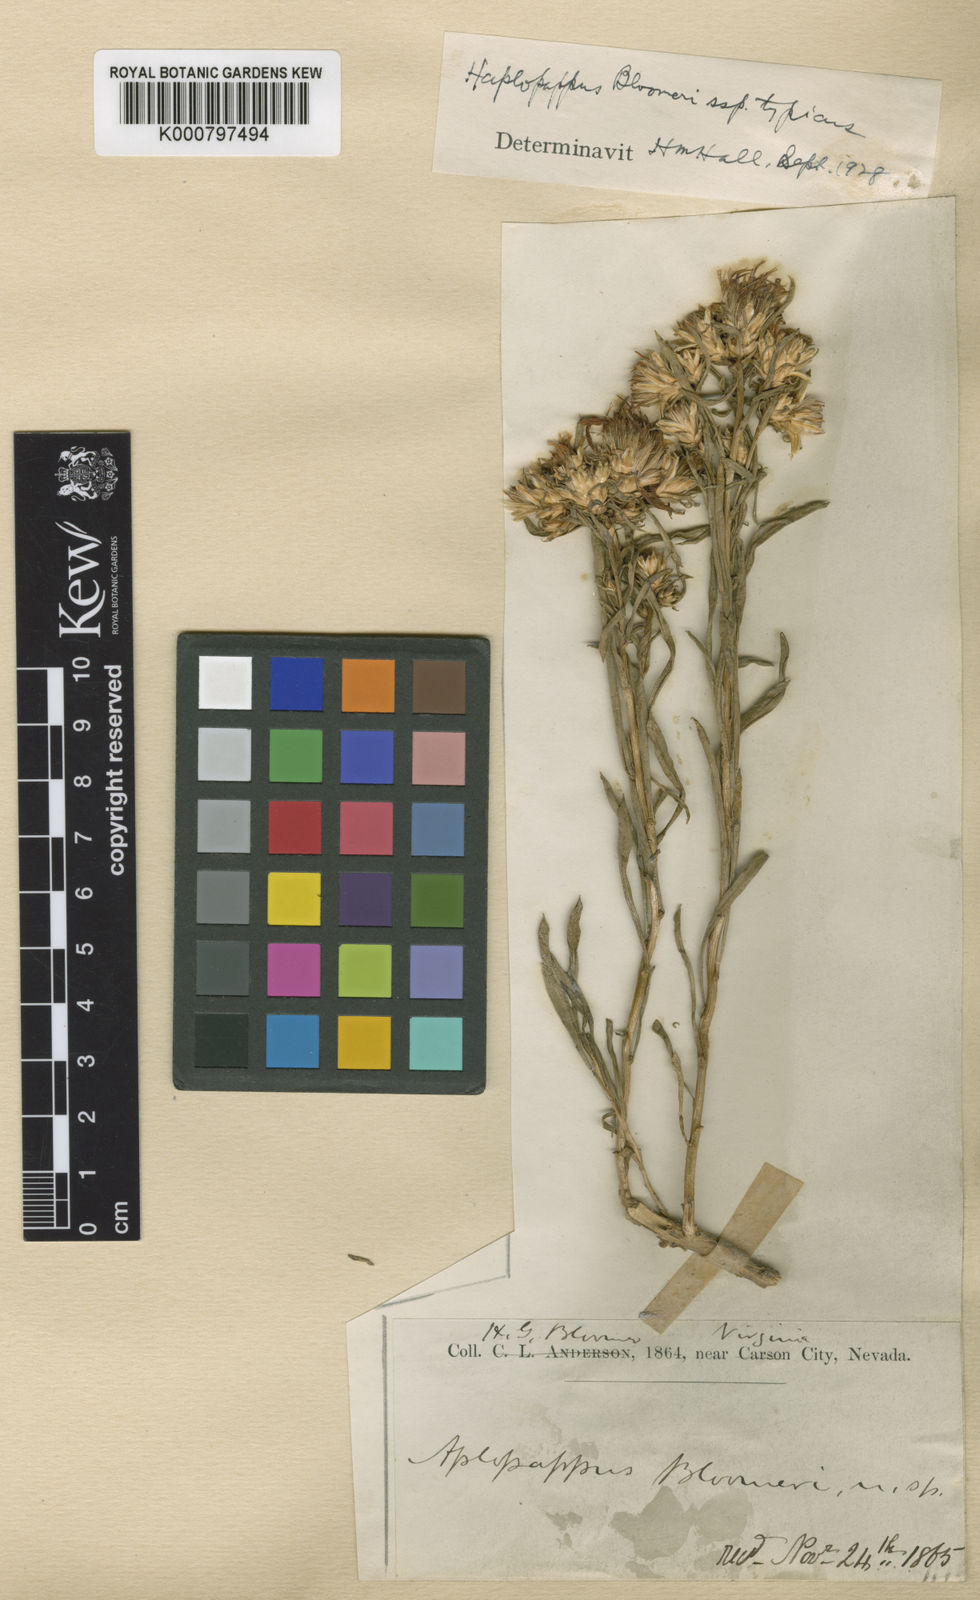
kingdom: Plantae
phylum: Tracheophyta
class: Magnoliopsida
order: Asterales
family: Asteraceae
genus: Ericameria
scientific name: Ericameria bloomeri
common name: Bloomer's goldenbush
